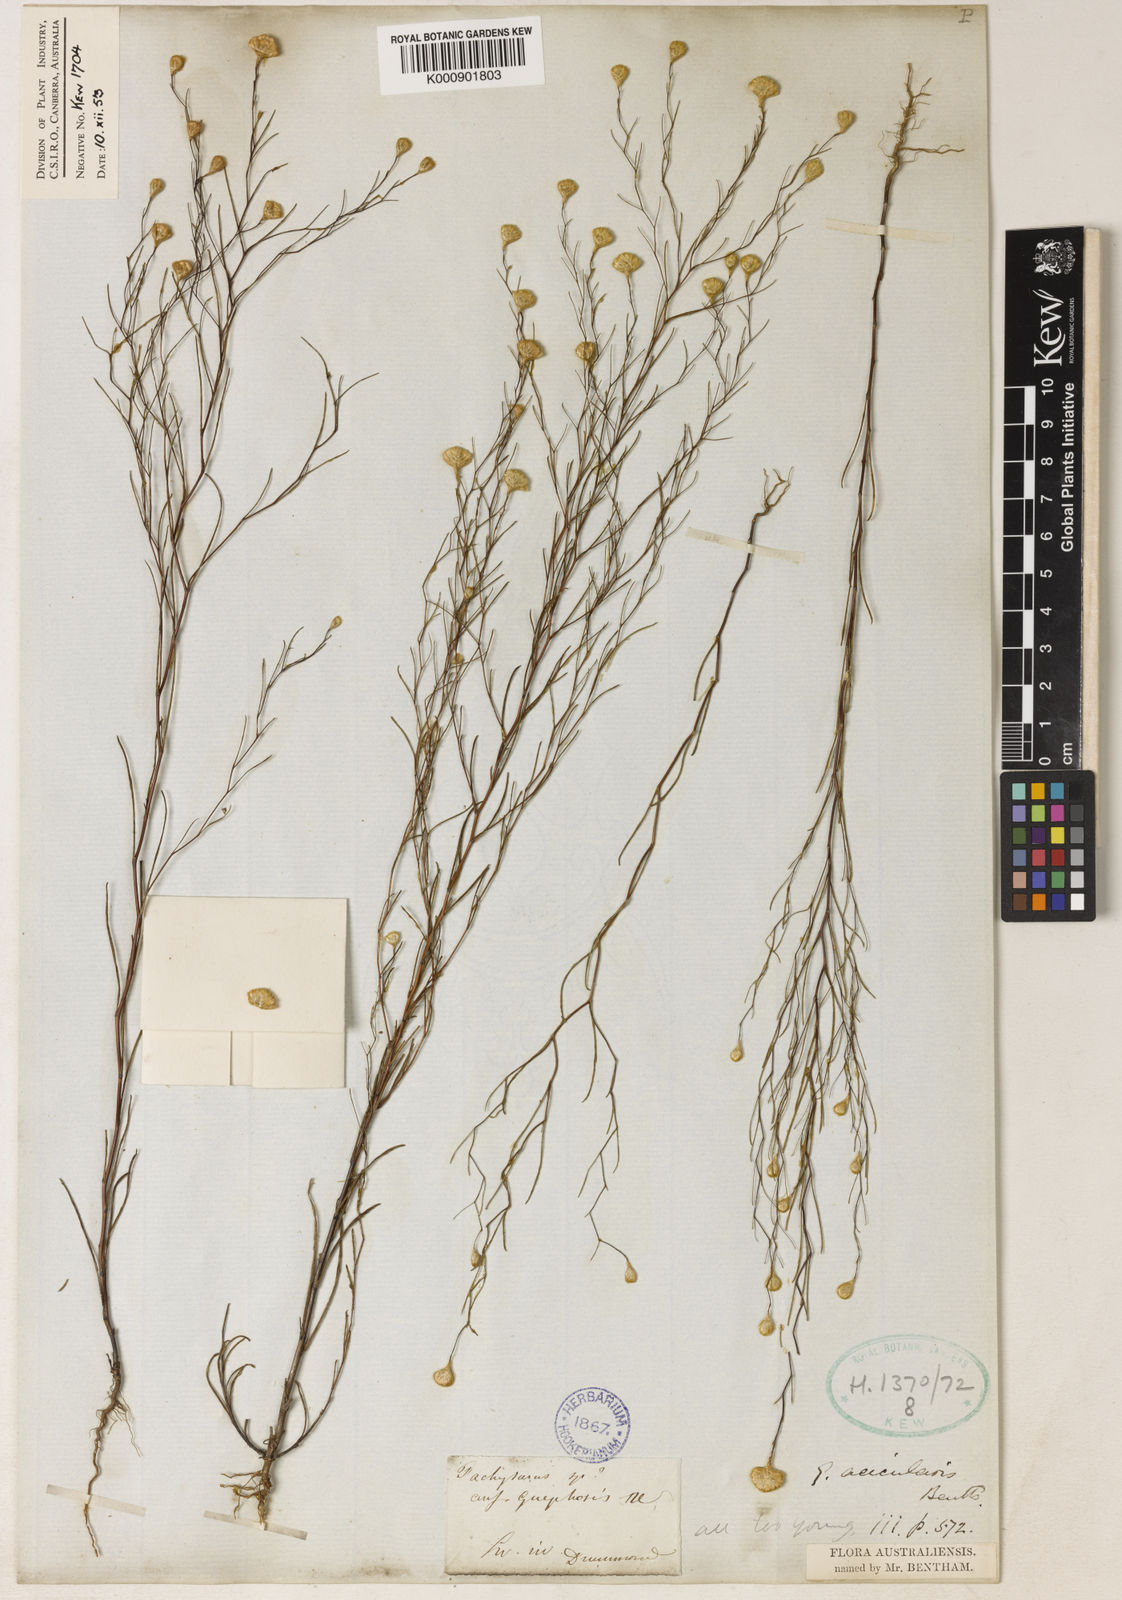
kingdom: Plantae
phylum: Tracheophyta
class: Magnoliopsida
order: Asterales
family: Asteraceae
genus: Gnephosis
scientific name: Gnephosis acicularis
